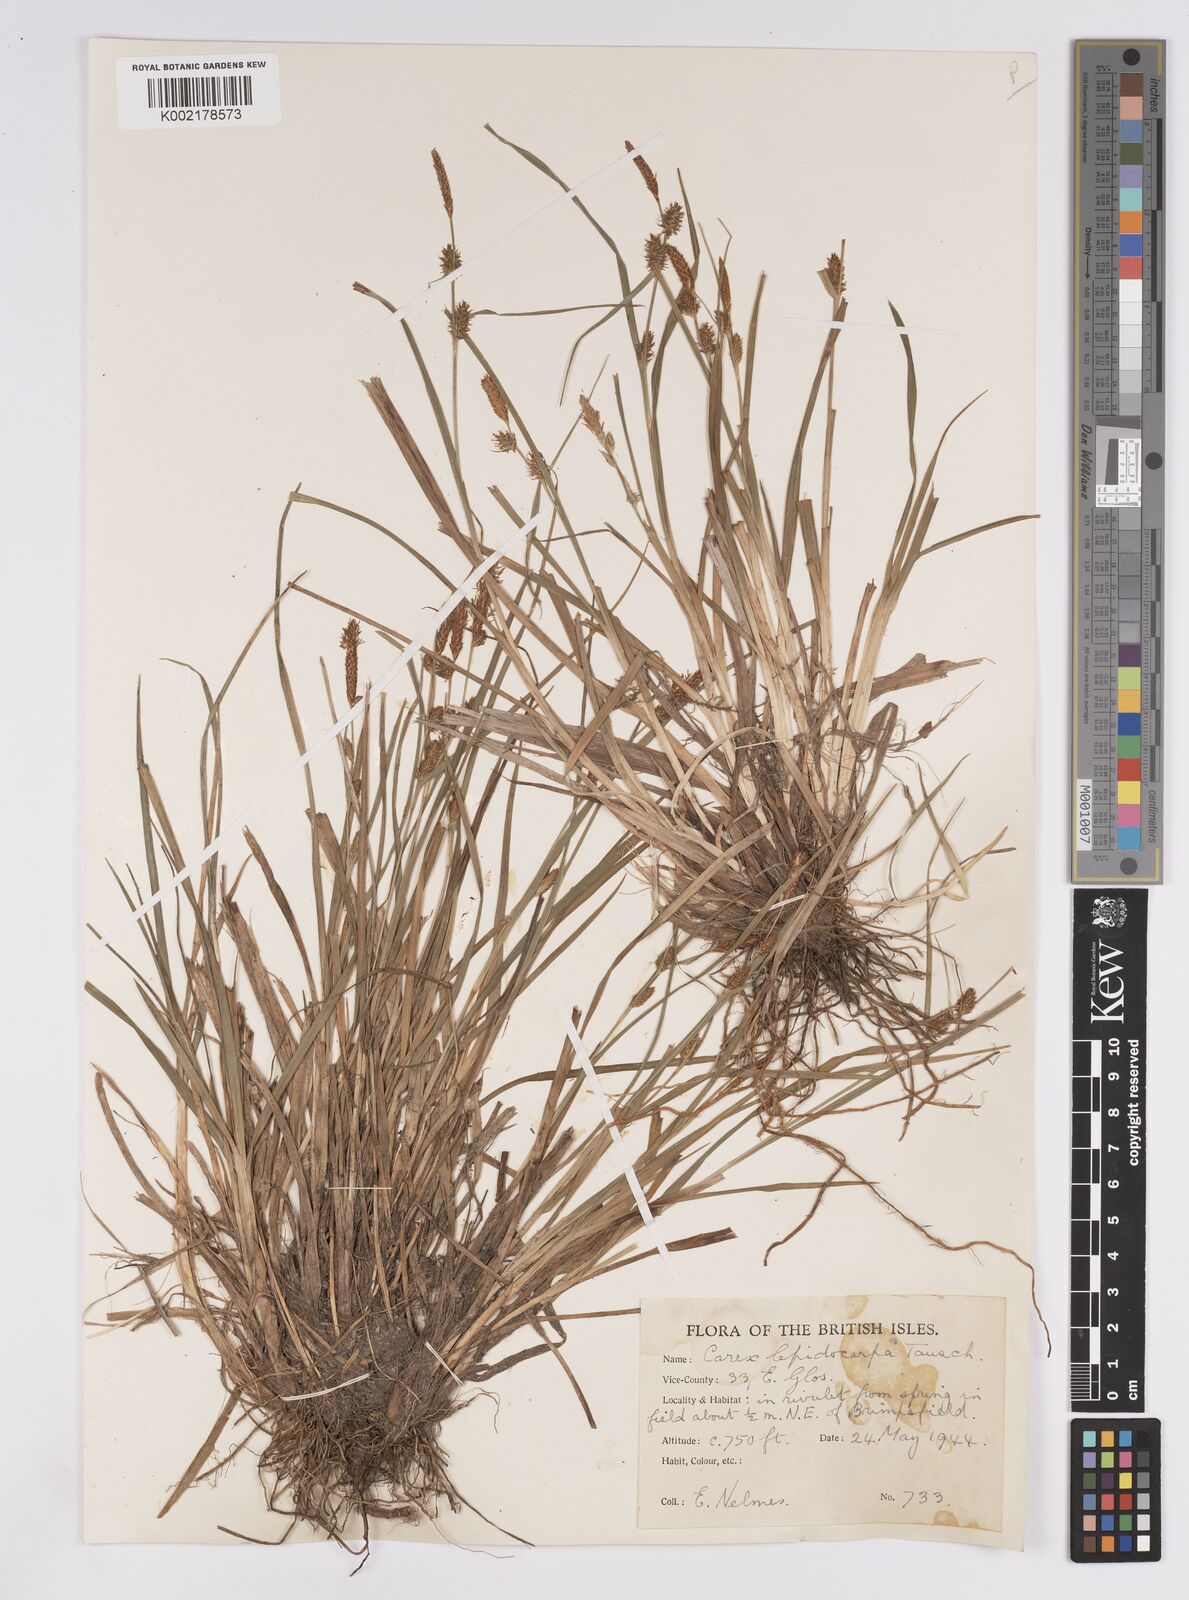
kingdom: Plantae
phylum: Tracheophyta
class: Liliopsida
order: Poales
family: Cyperaceae
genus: Carex
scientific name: Carex lepidocarpa
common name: Long-stalked yellow-sedge
